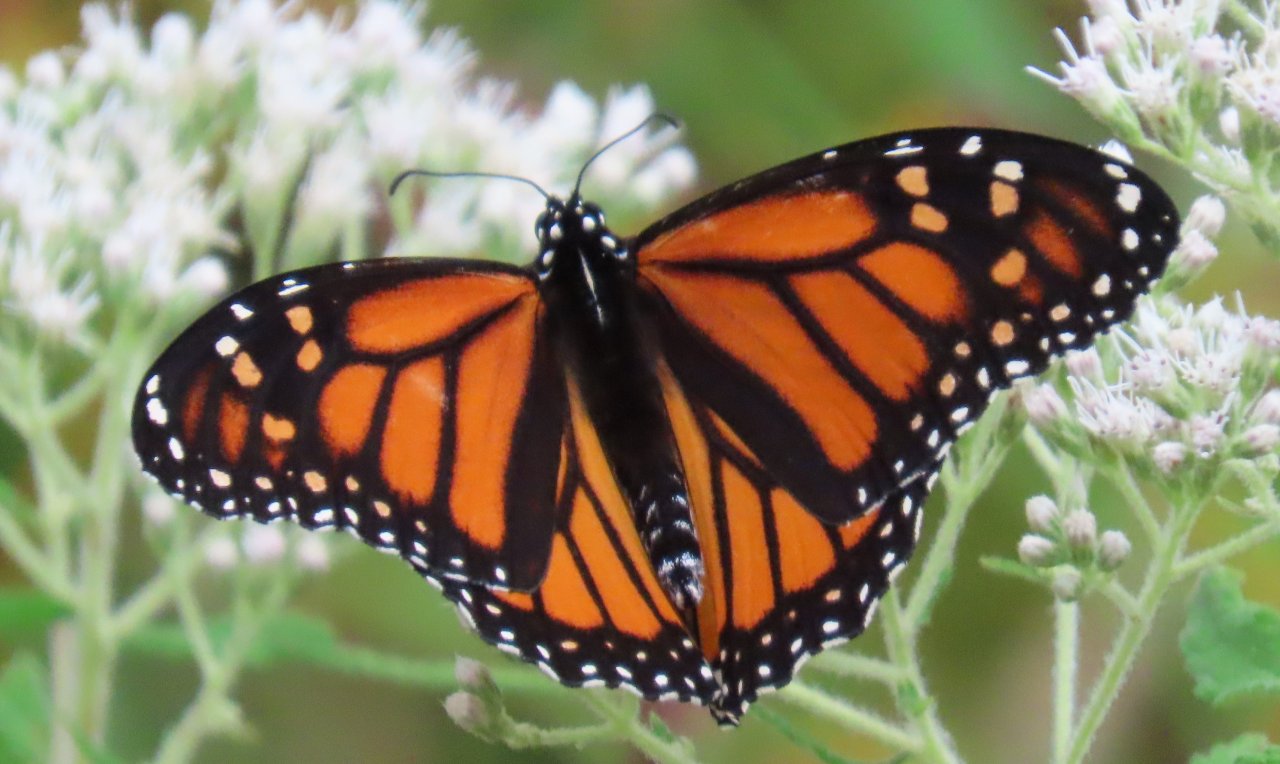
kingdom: Animalia
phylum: Arthropoda
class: Insecta
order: Lepidoptera
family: Nymphalidae
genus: Danaus
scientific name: Danaus plexippus
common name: Monarch
